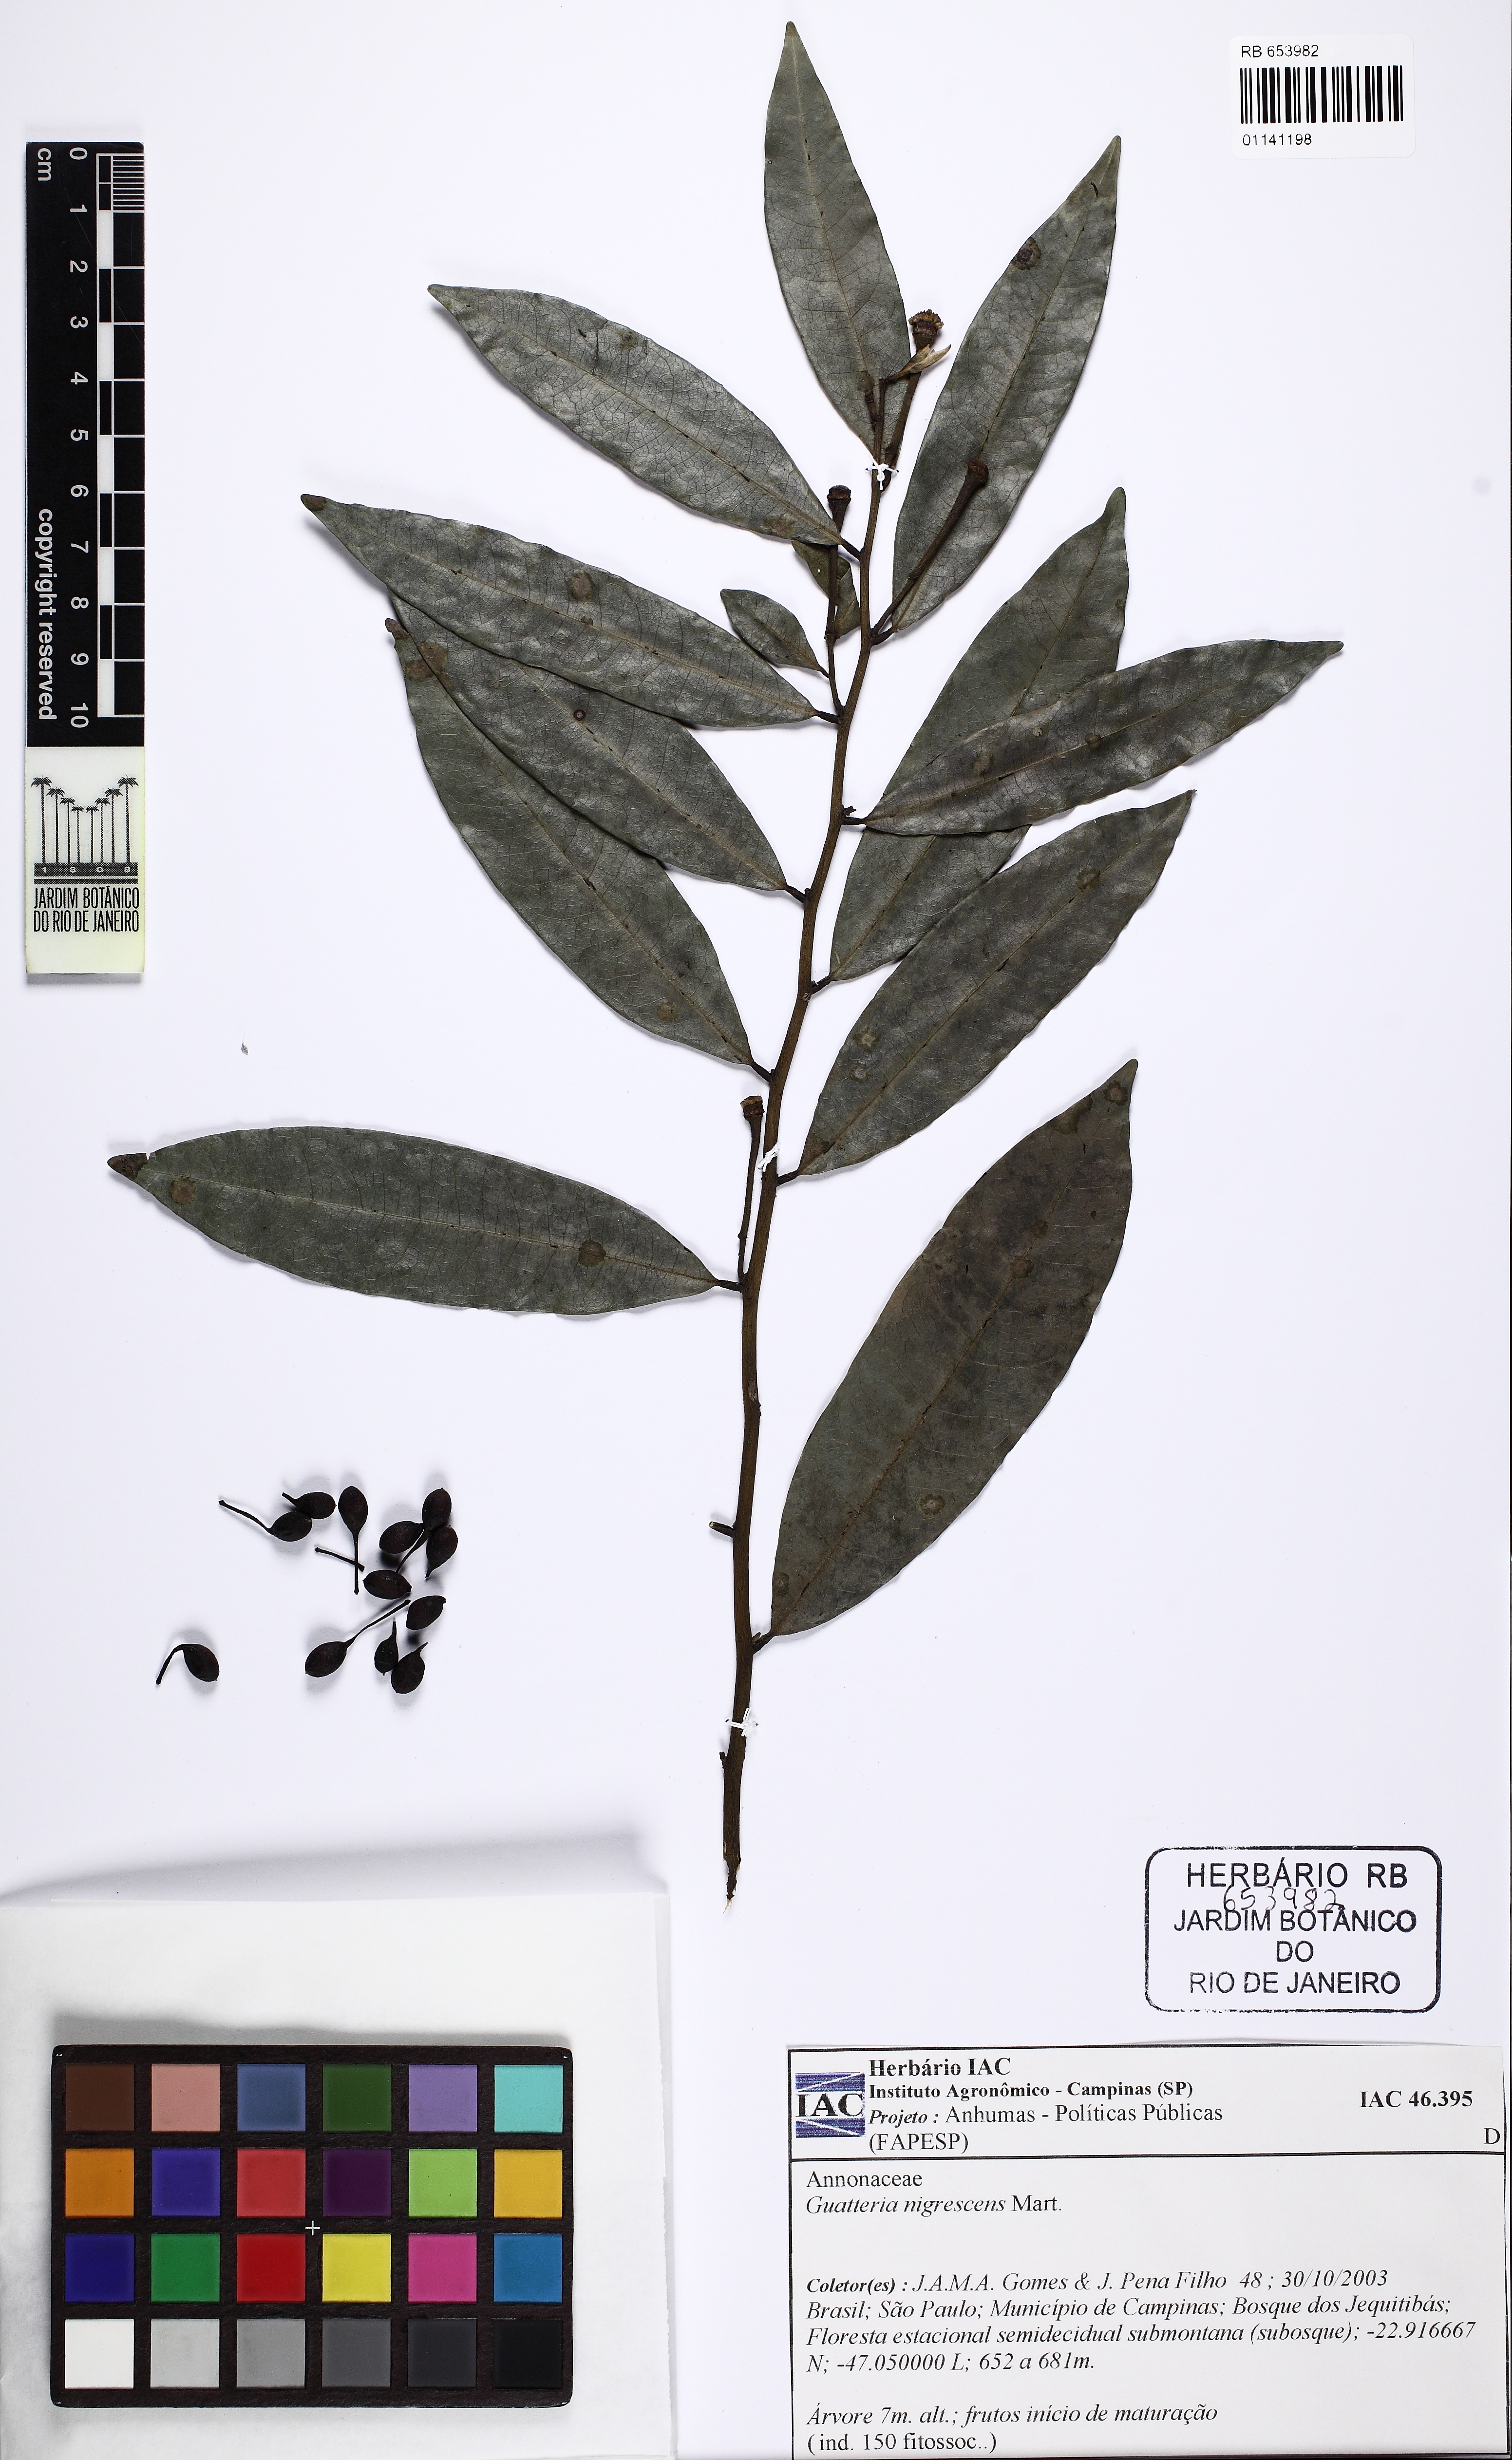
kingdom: Plantae
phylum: Tracheophyta
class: Magnoliopsida
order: Magnoliales
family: Annonaceae
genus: Guatteria
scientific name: Guatteria australis
